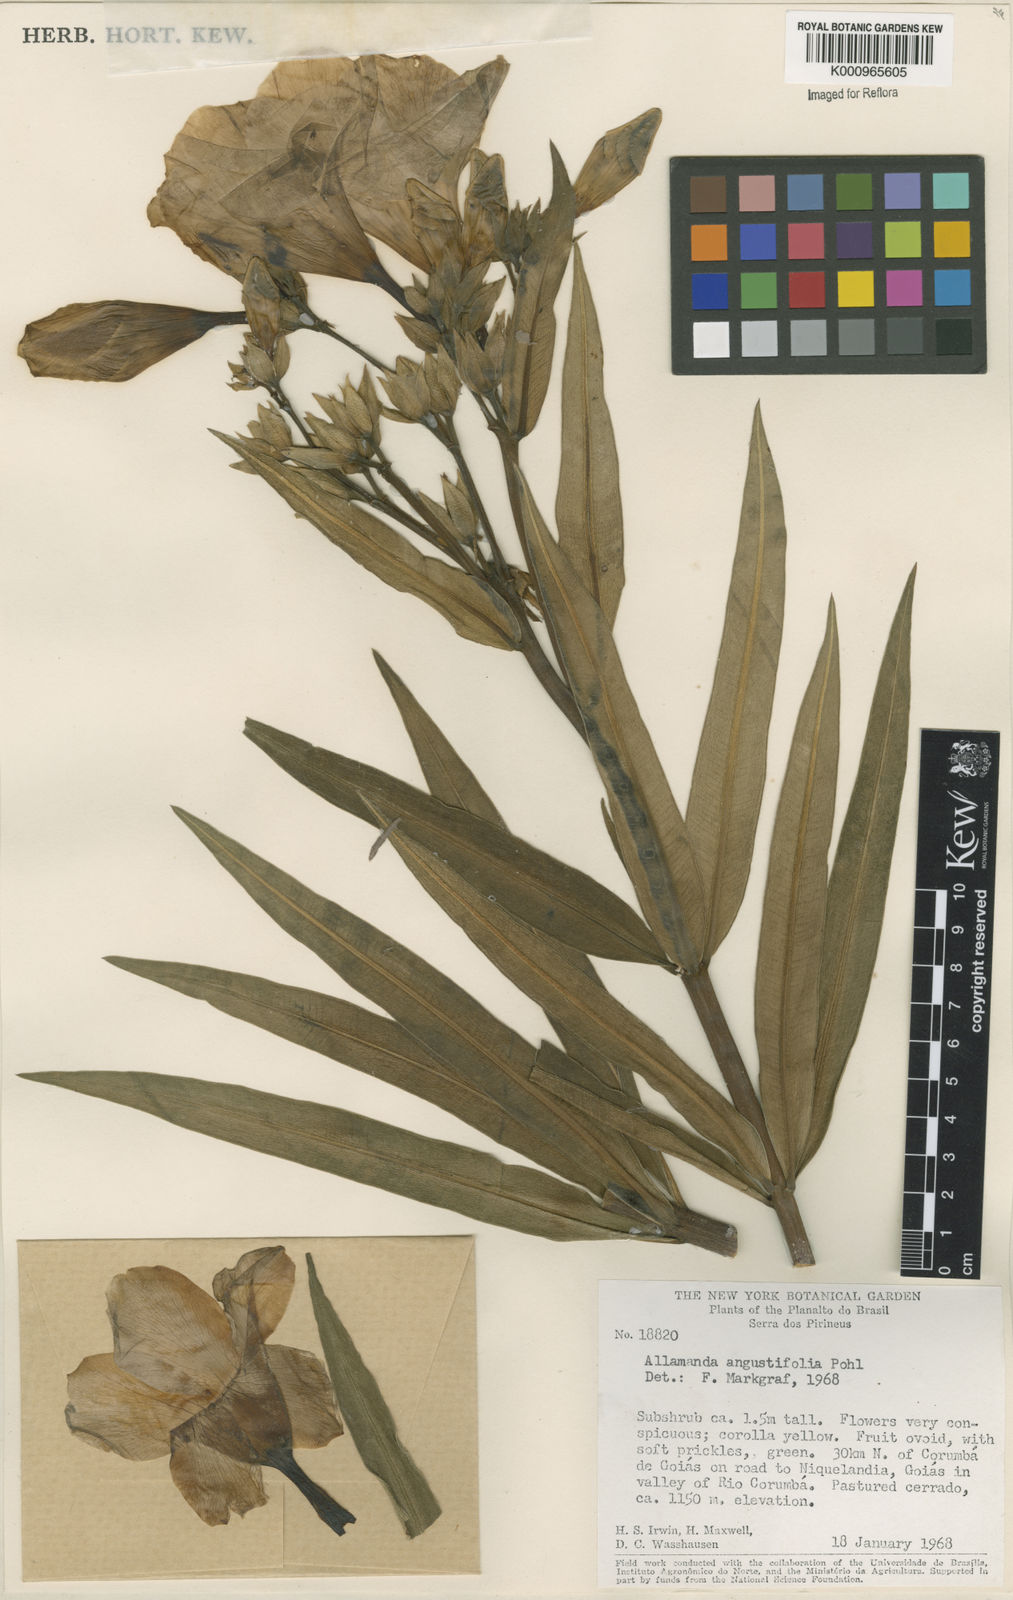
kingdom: Plantae
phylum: Tracheophyta
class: Magnoliopsida
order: Gentianales
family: Apocynaceae
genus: Allamanda
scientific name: Allamanda angustifolia
